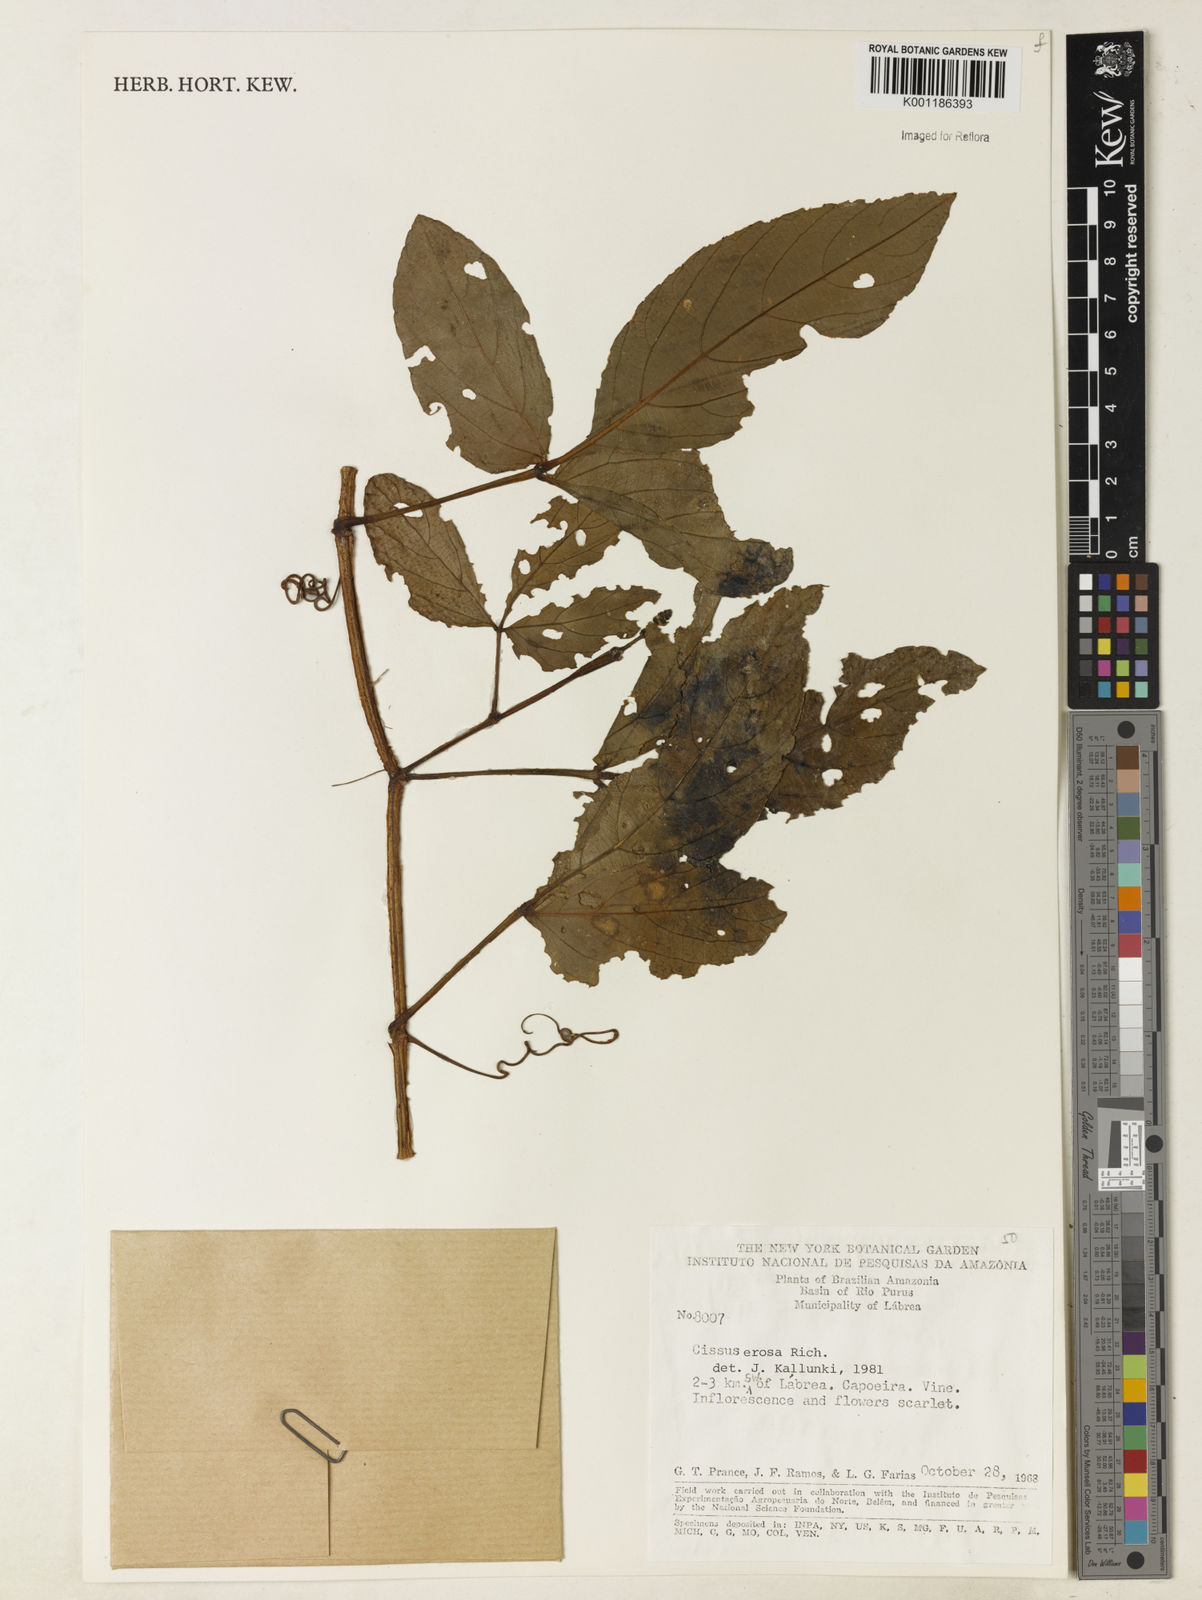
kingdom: Plantae
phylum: Tracheophyta
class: Magnoliopsida
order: Vitales
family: Vitaceae
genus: Cissus
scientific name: Cissus erosa
